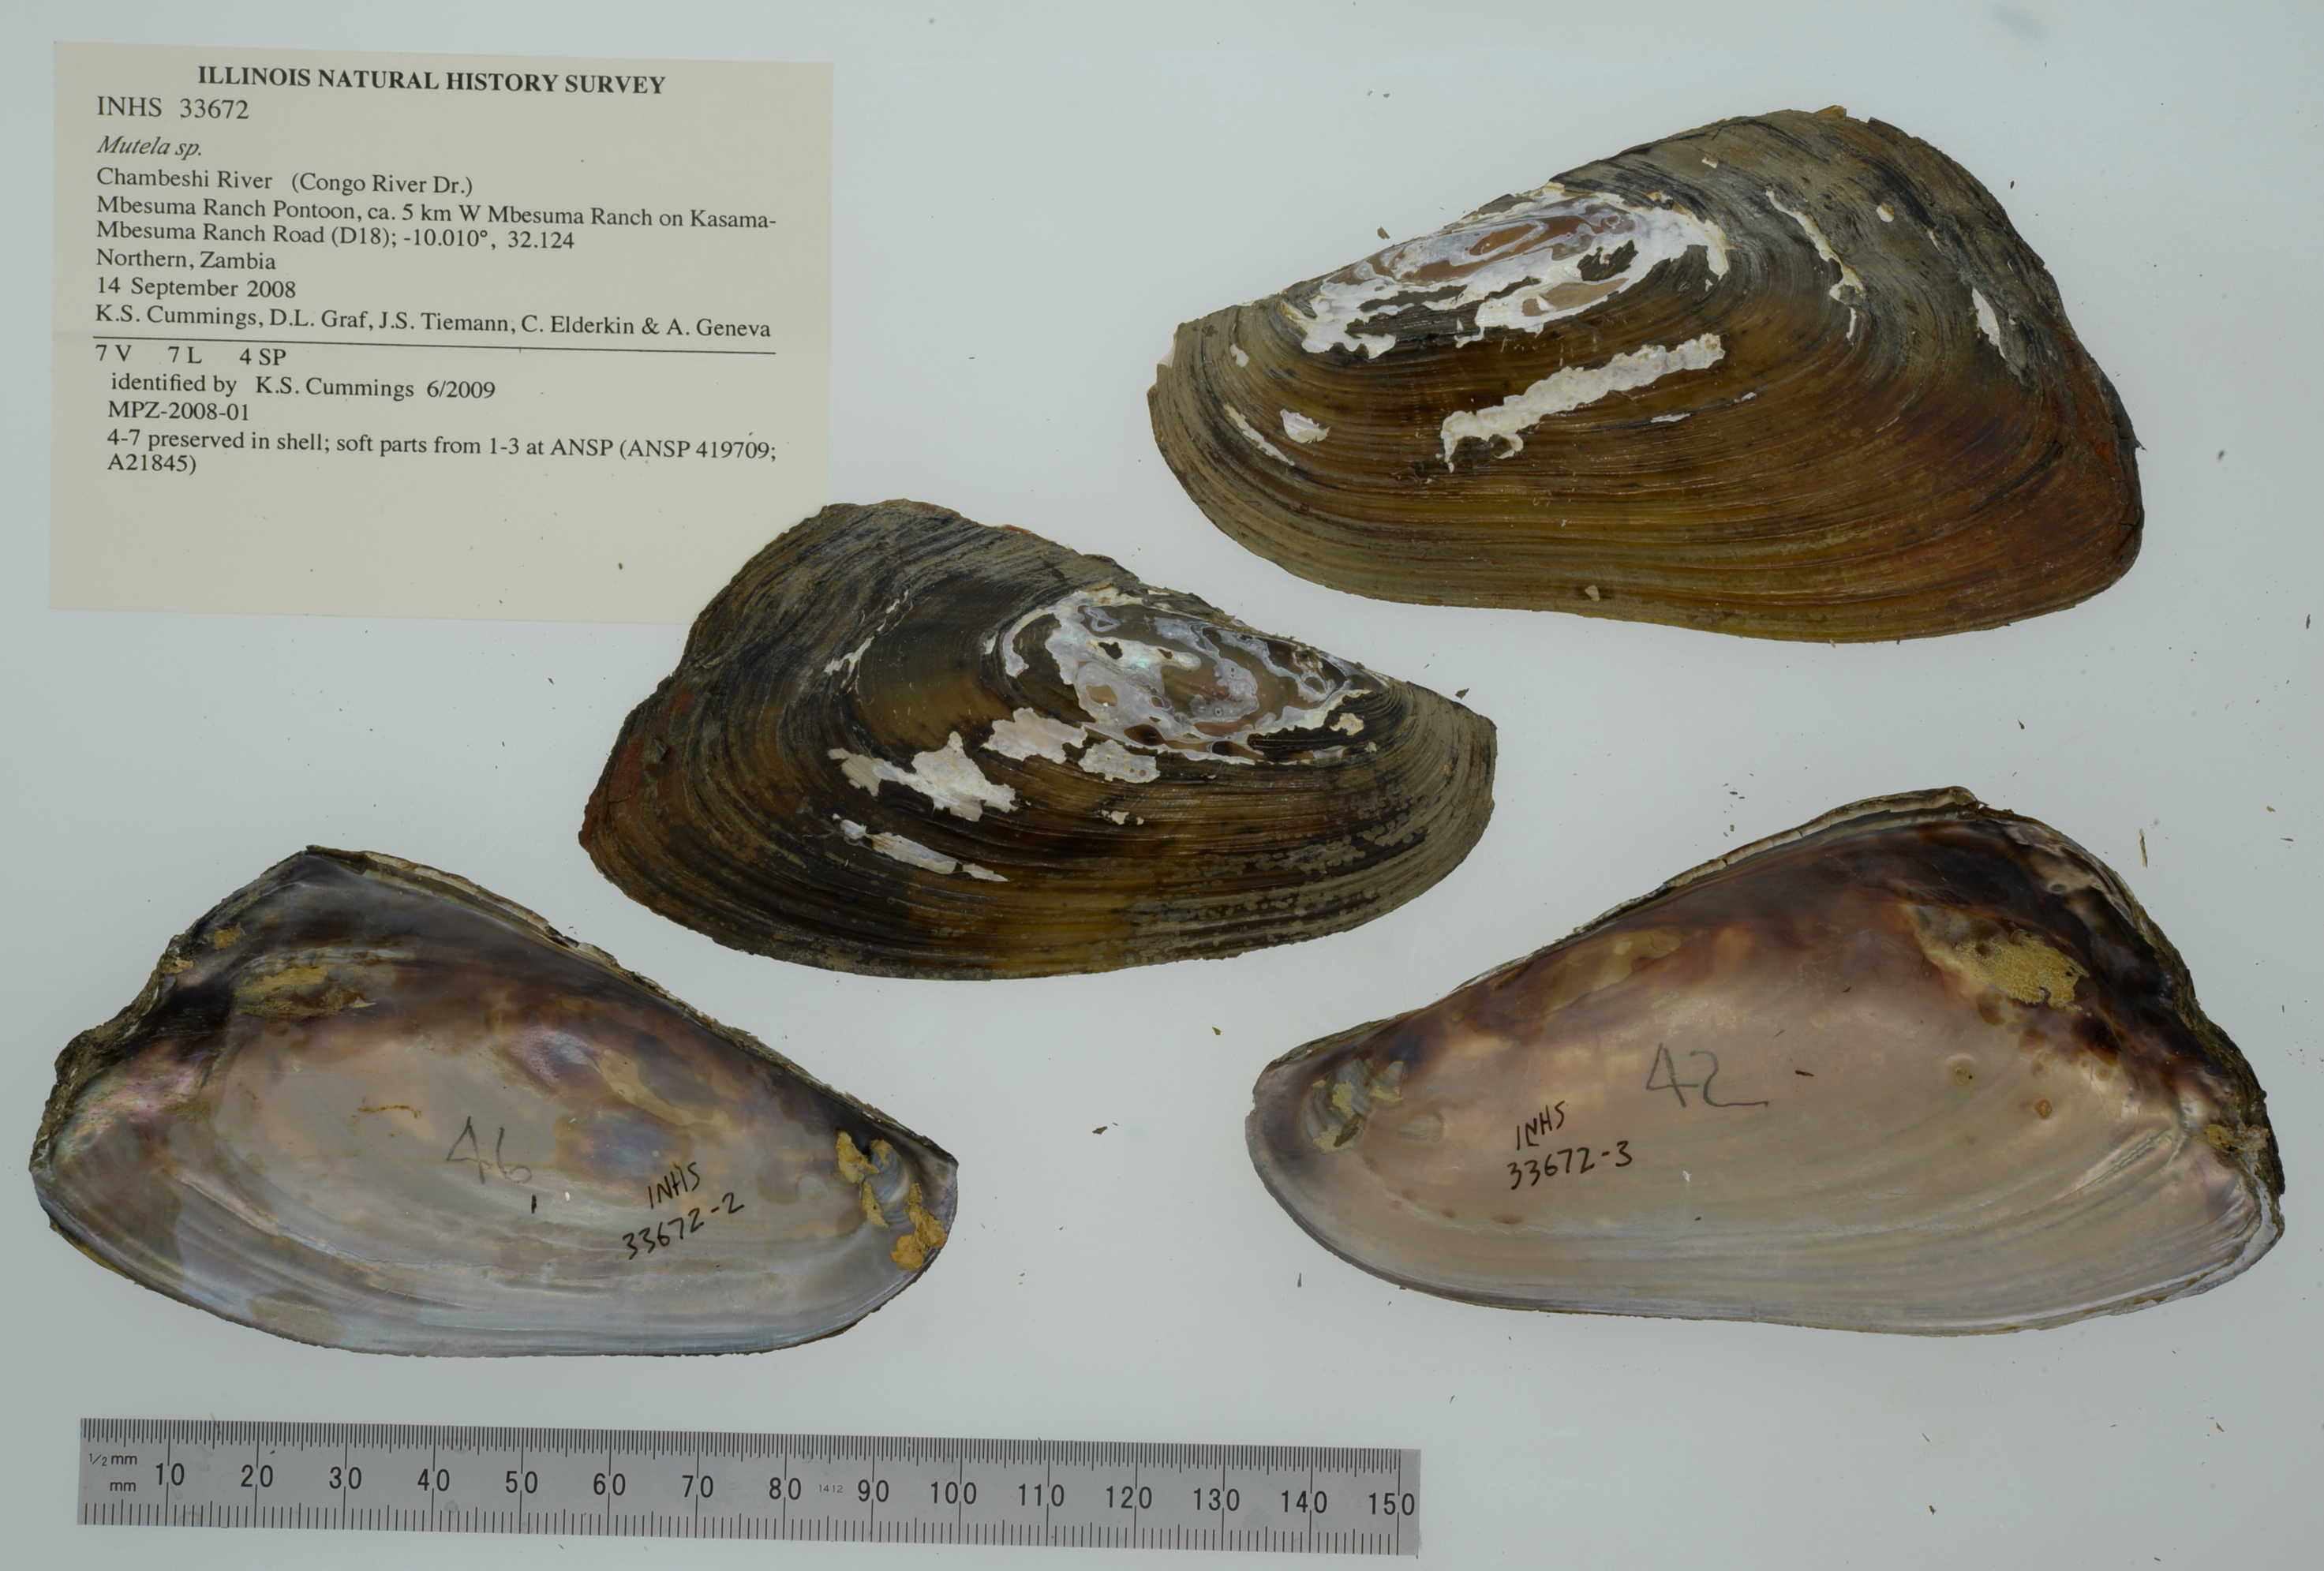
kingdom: Animalia
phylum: Mollusca
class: Bivalvia
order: Unionida
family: Iridinidae
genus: Mutela
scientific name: Mutela
